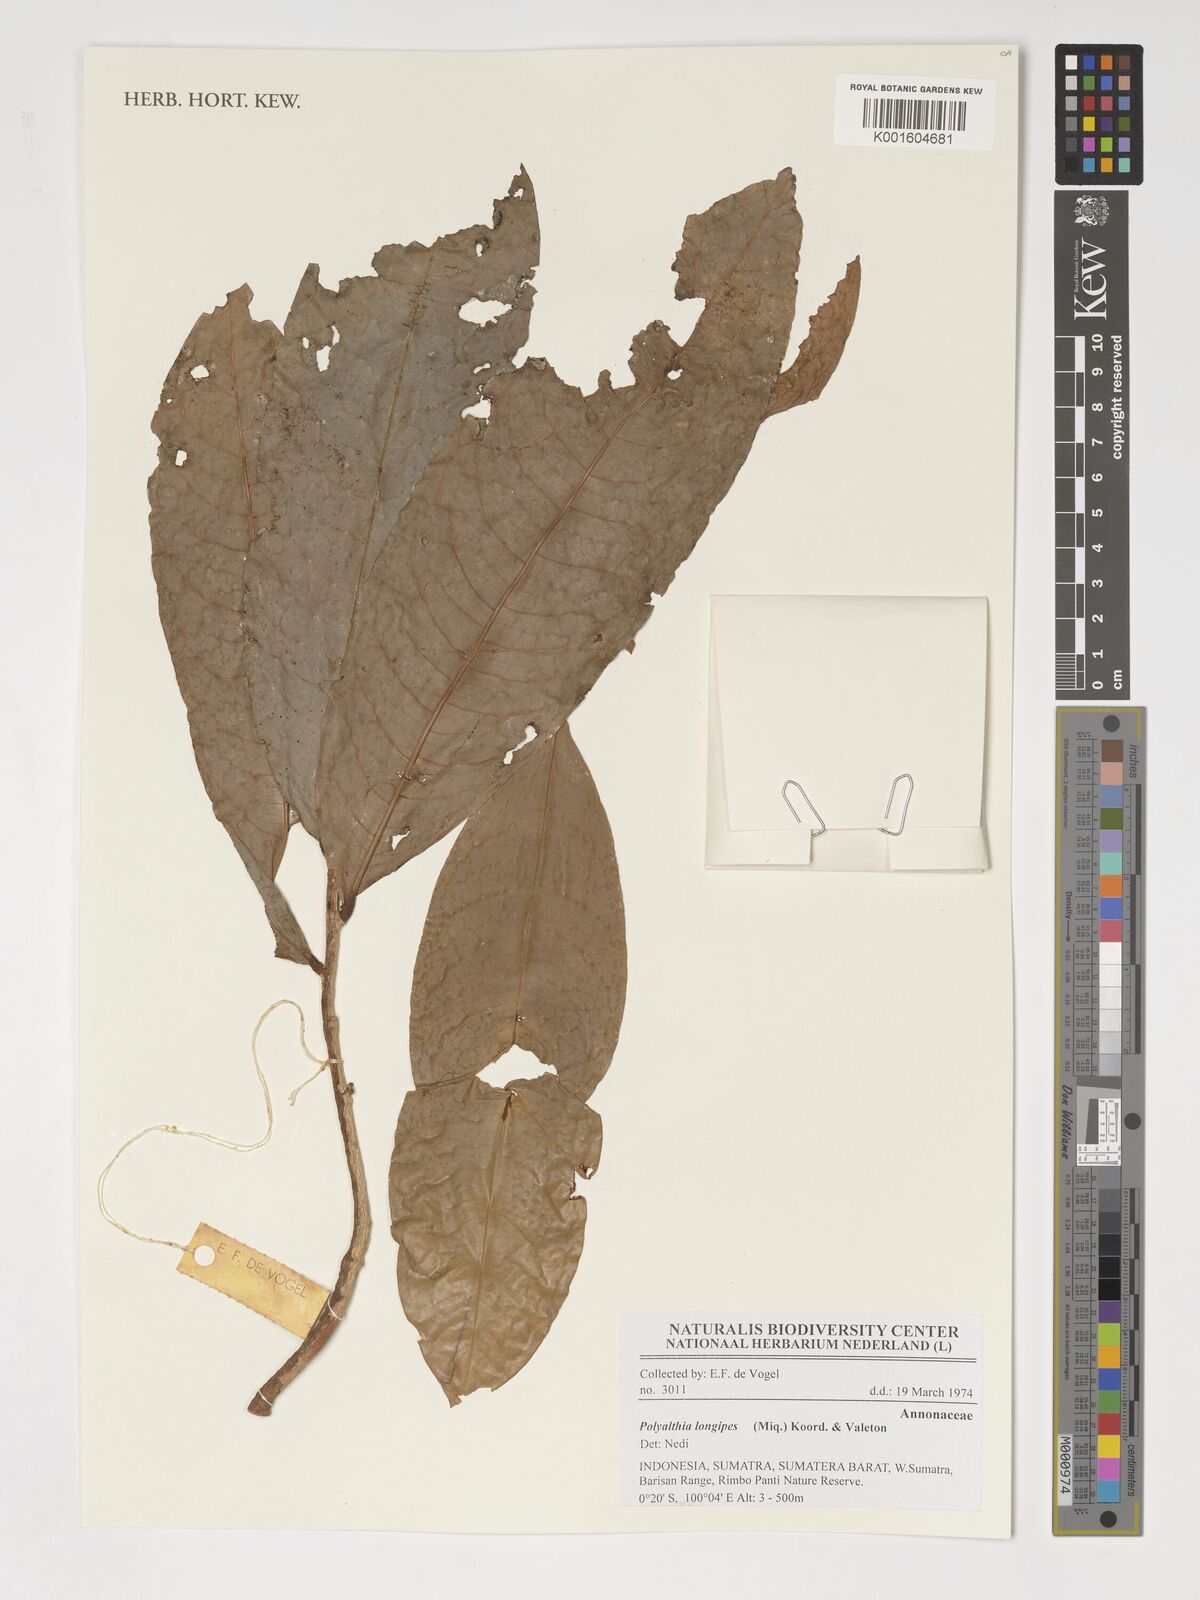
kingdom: Plantae
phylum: Tracheophyta
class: Magnoliopsida
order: Magnoliales
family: Annonaceae
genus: Polyalthia
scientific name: Polyalthia longipes
